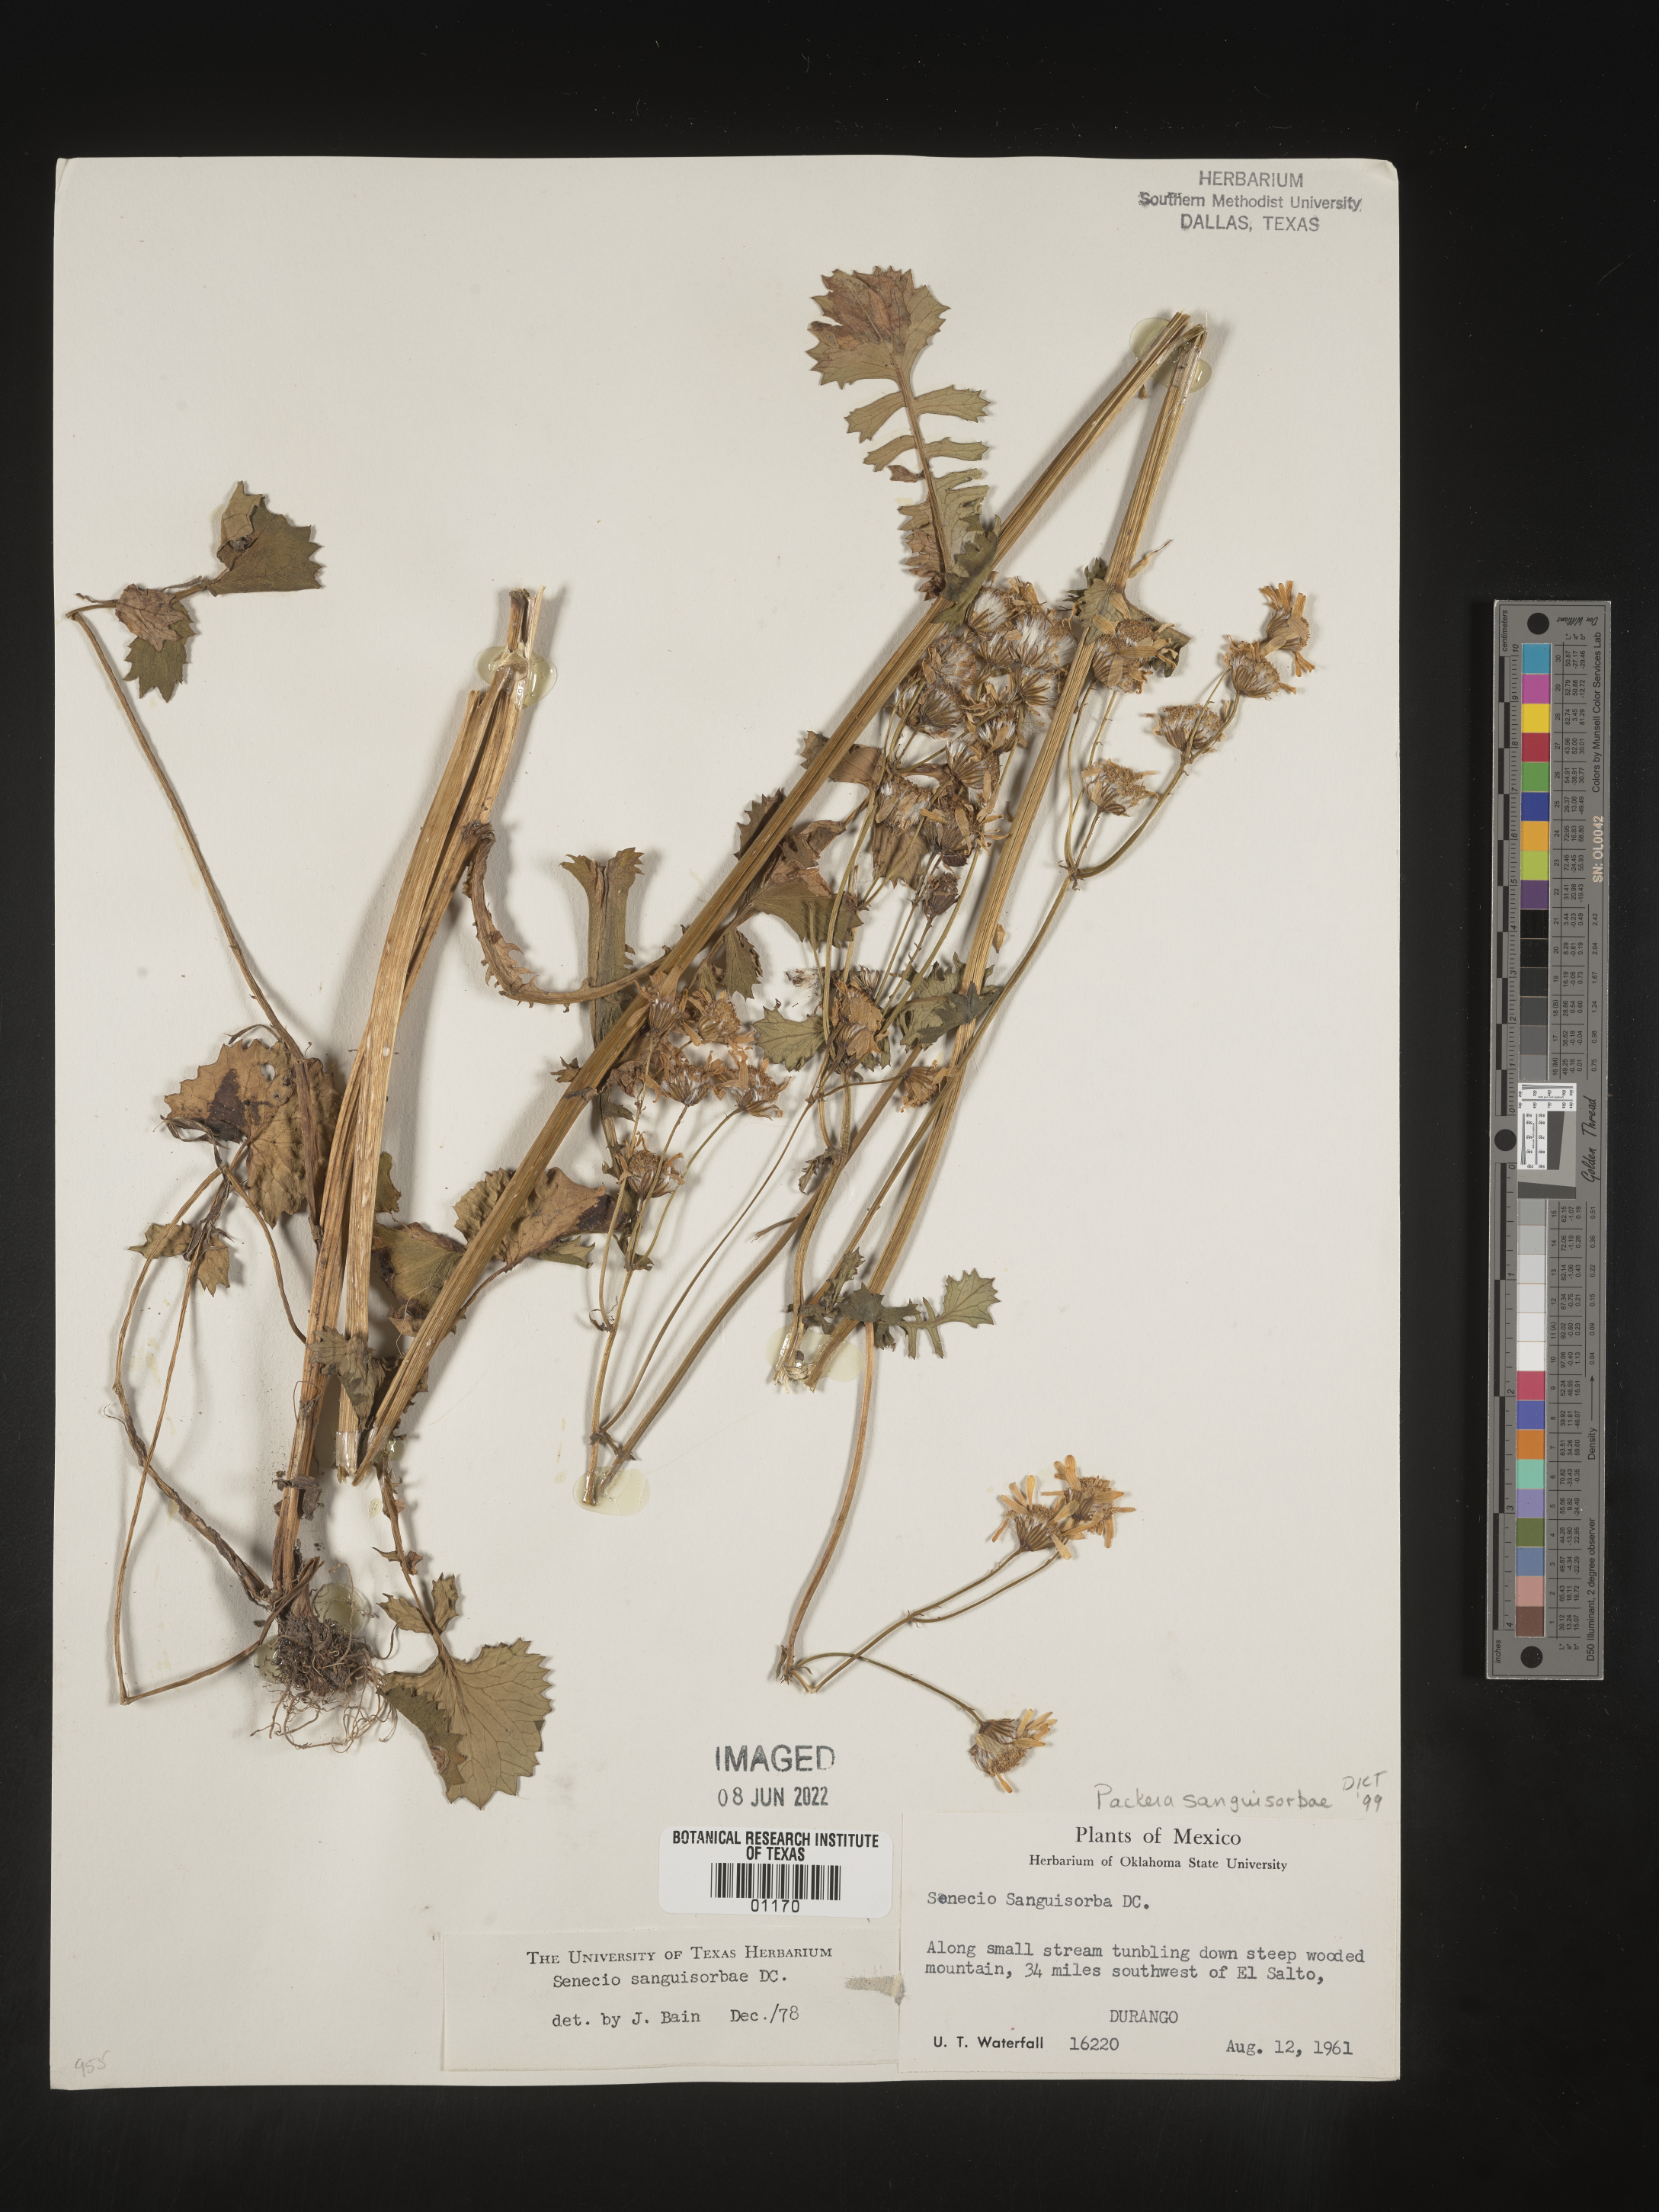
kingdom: Plantae
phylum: Tracheophyta
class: Magnoliopsida
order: Asterales
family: Asteraceae
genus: Packera
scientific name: Packera
